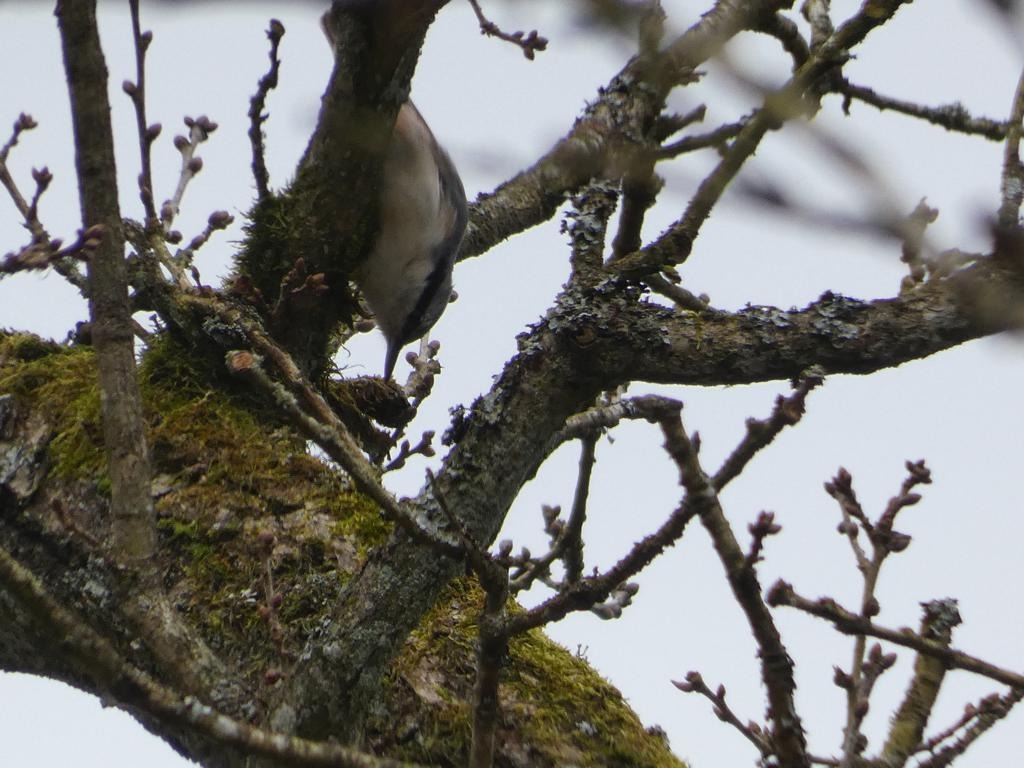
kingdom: Animalia
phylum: Chordata
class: Aves
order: Passeriformes
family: Sittidae
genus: Sitta
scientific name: Sitta europaea
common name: Spætmejse
